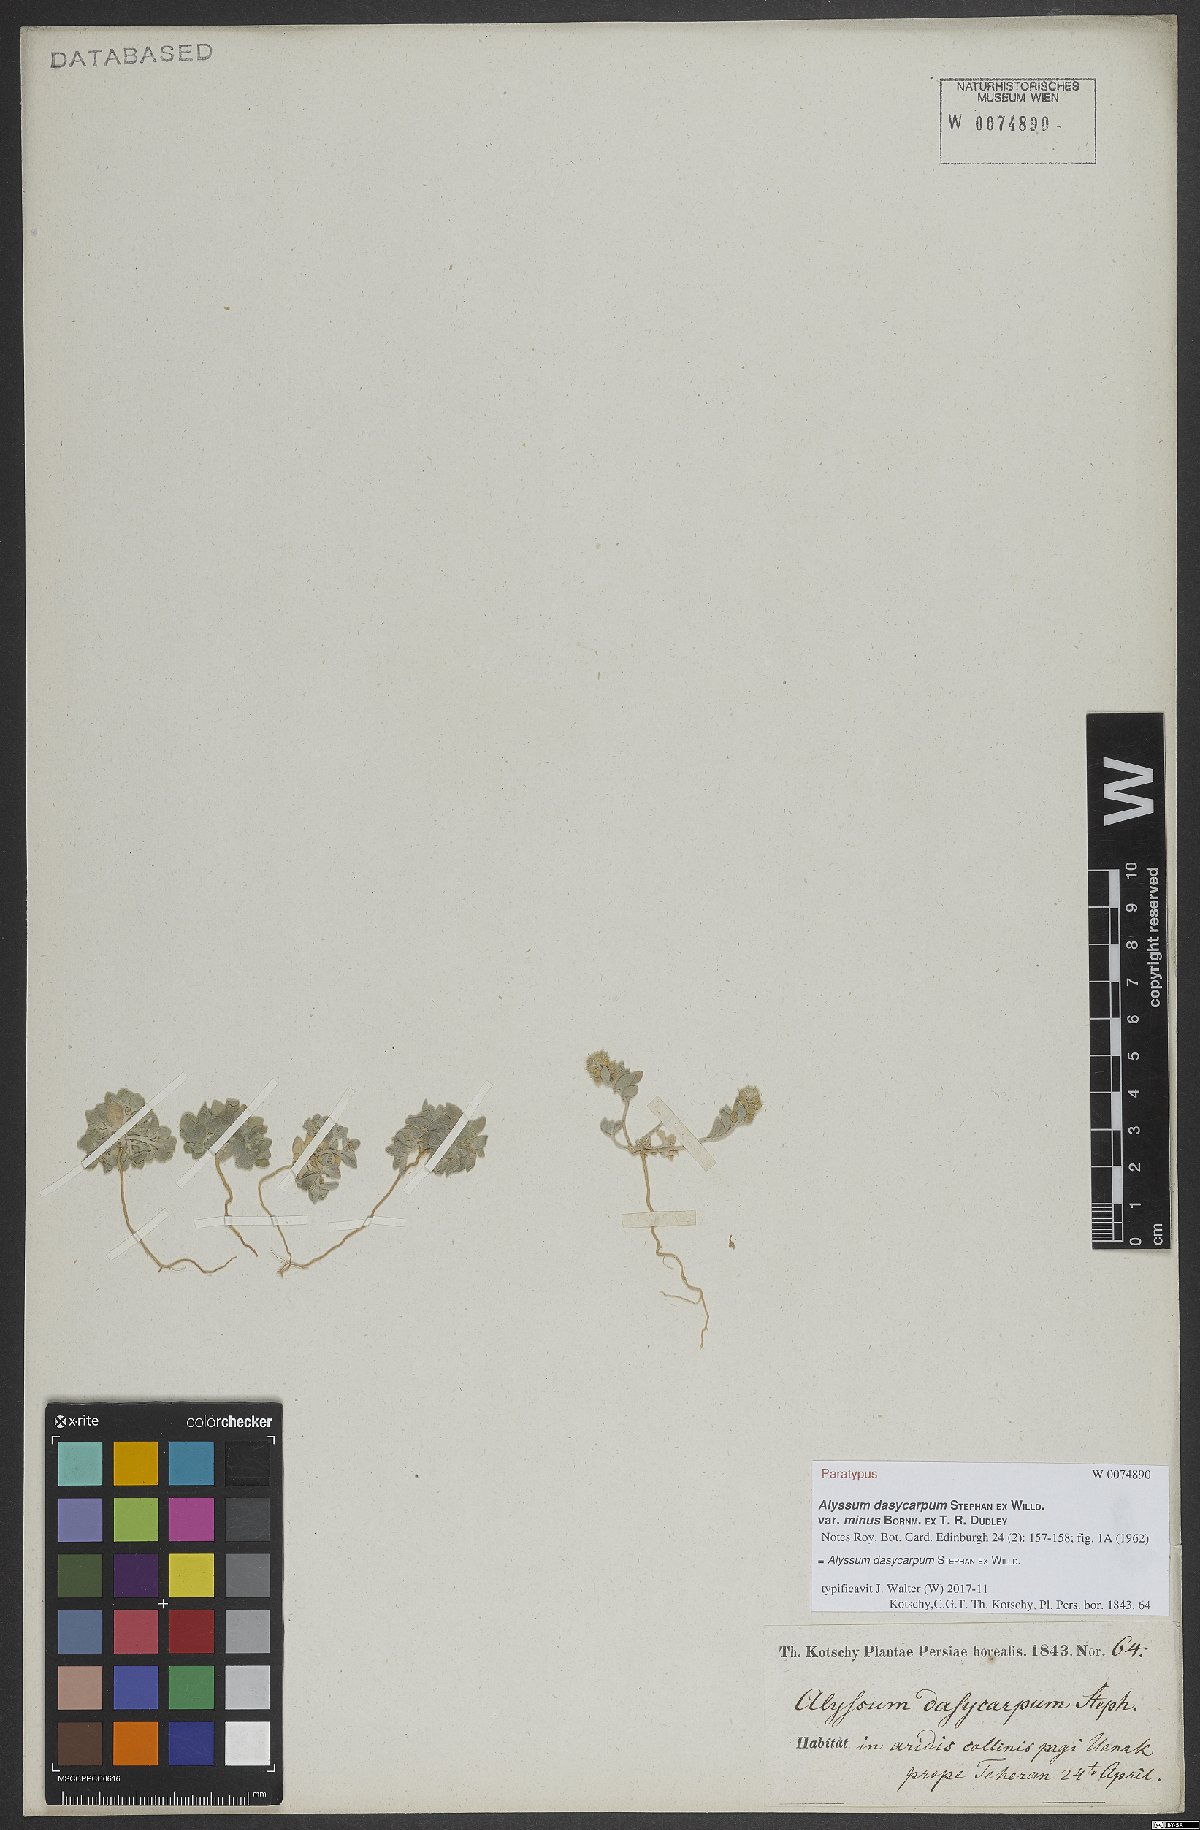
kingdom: Plantae
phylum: Tracheophyta
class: Magnoliopsida
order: Brassicales
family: Brassicaceae
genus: Alyssum
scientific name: Alyssum dasycarpum
